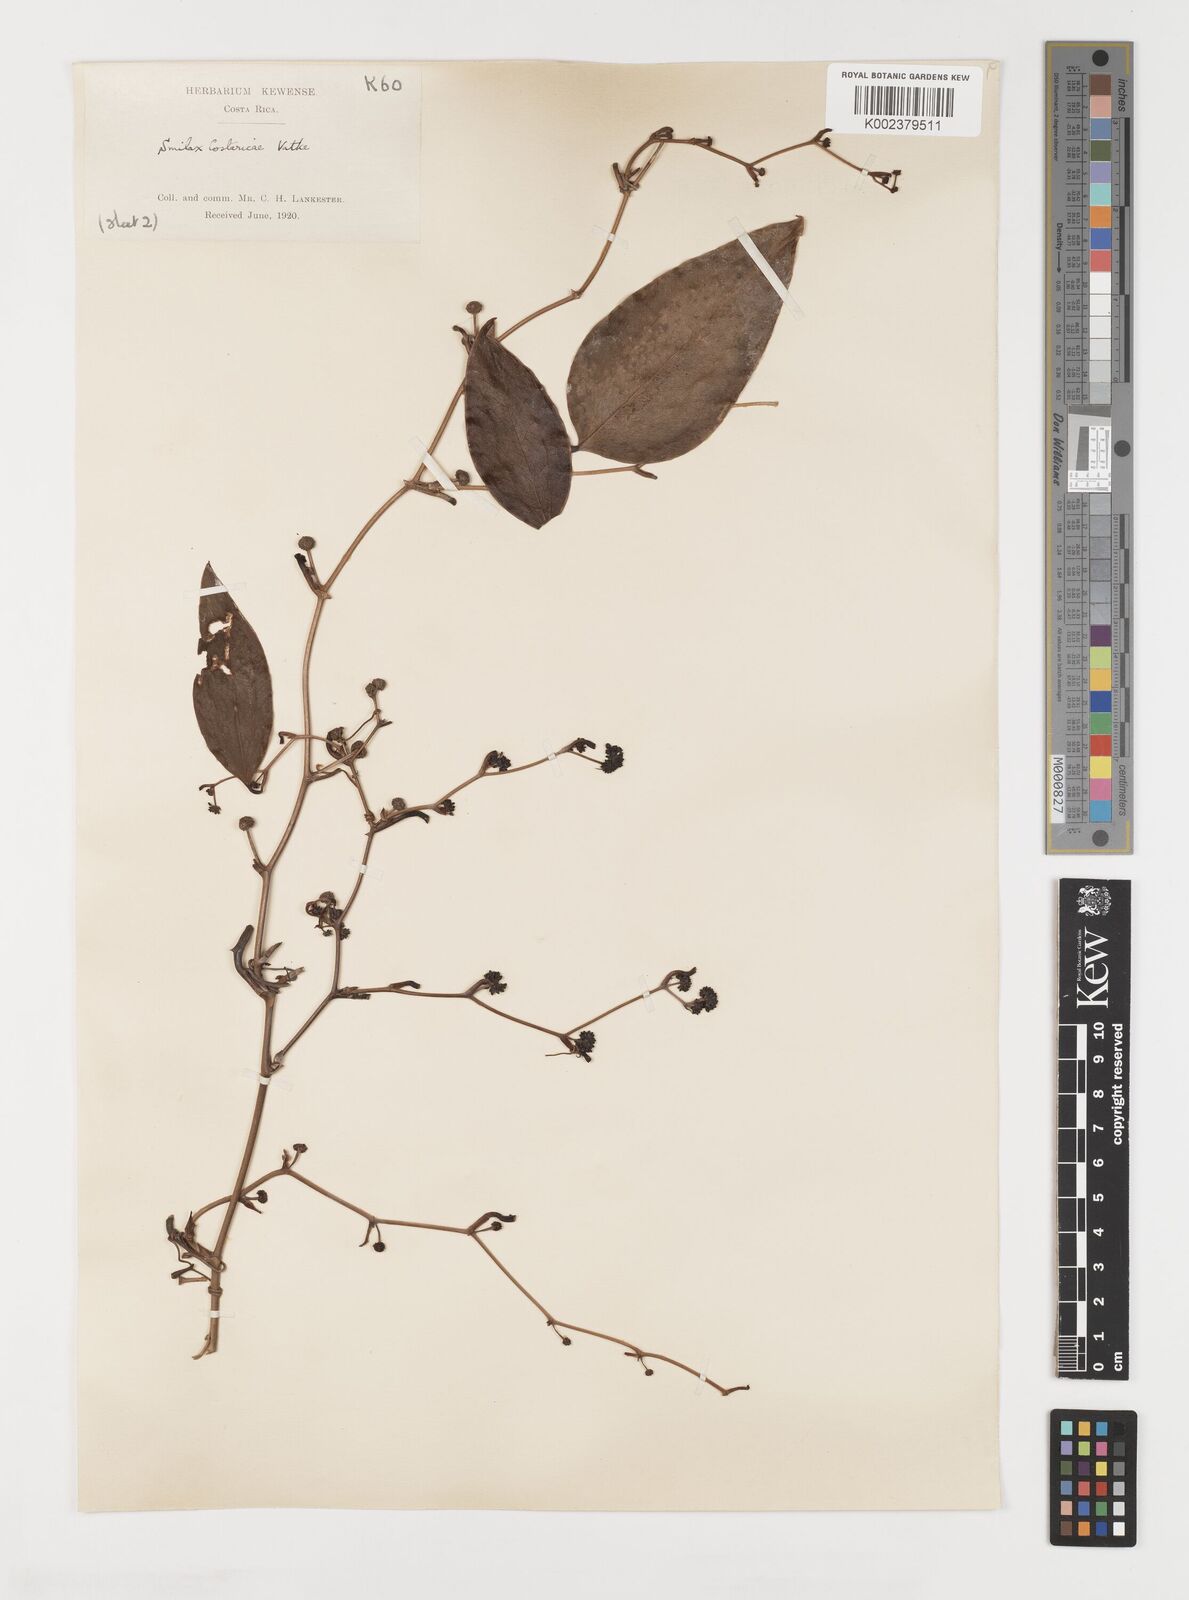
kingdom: Plantae
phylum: Tracheophyta
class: Liliopsida
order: Liliales
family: Smilacaceae
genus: Smilax
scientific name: Smilax spinosa
